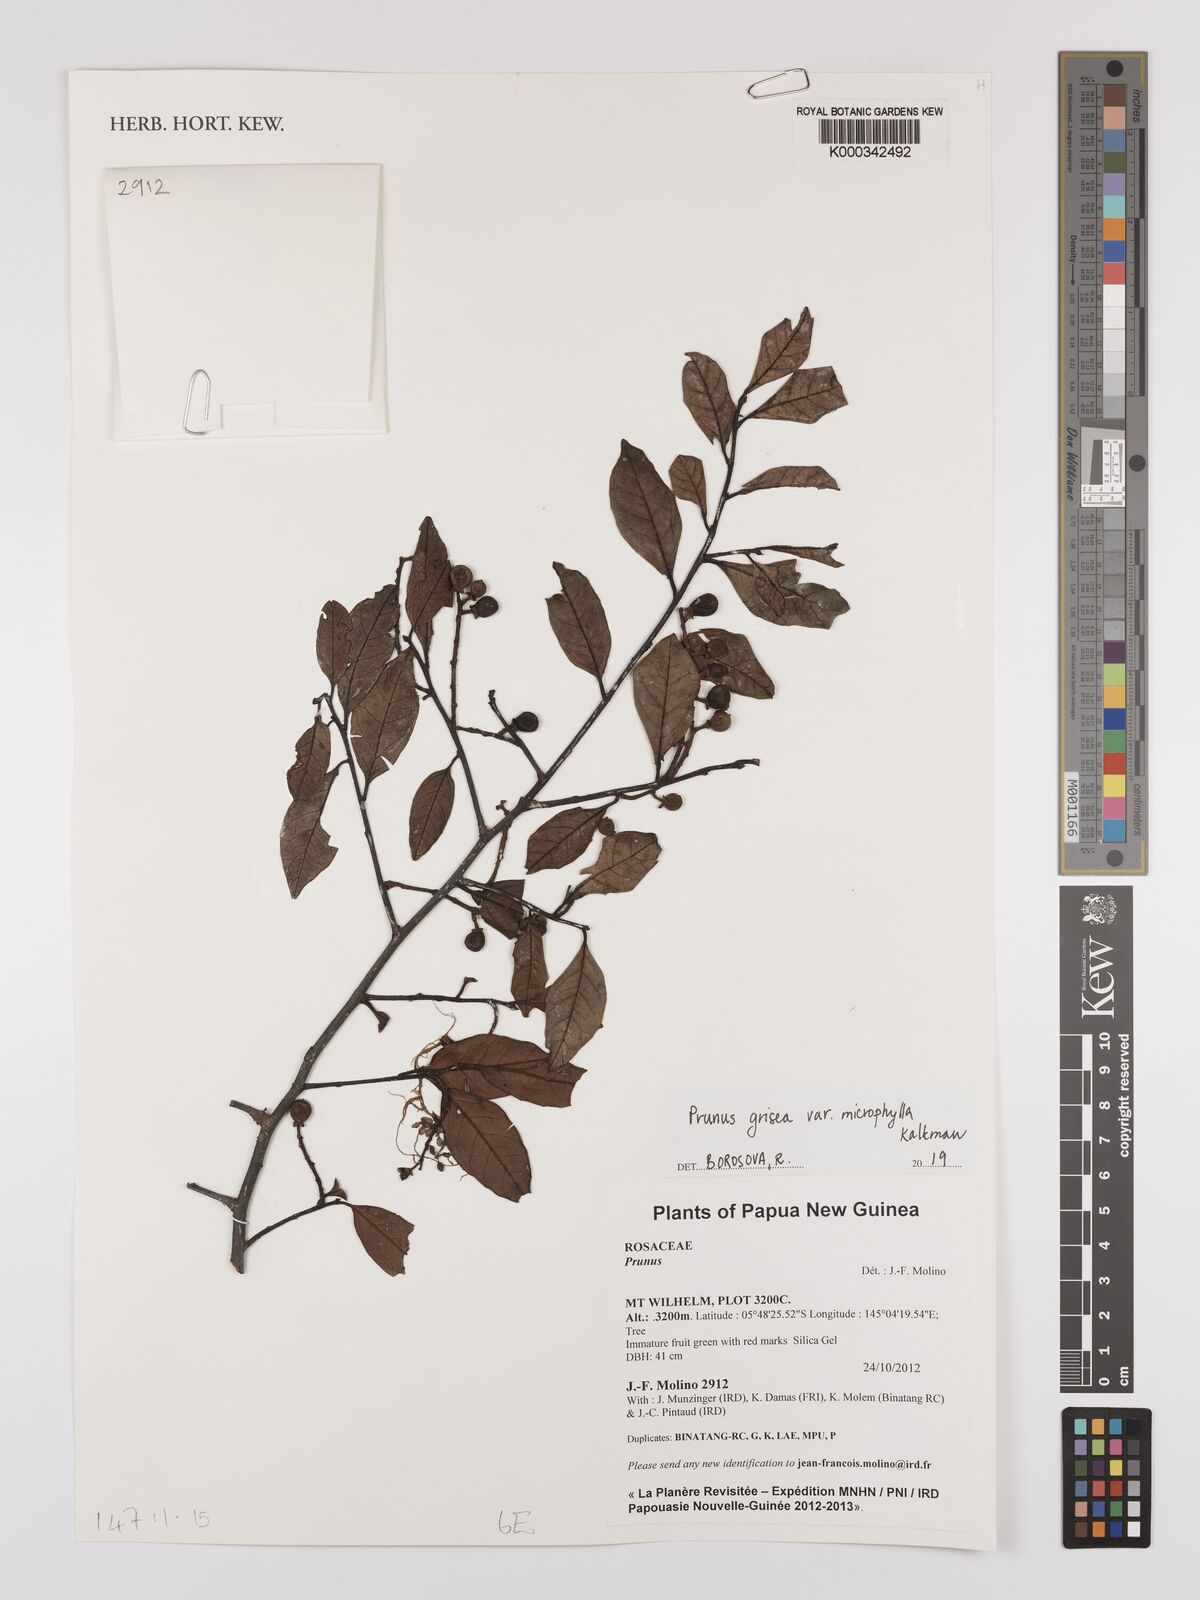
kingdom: Plantae
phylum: Tracheophyta
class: Magnoliopsida
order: Rosales
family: Rosaceae
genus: Prunus
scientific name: Prunus
